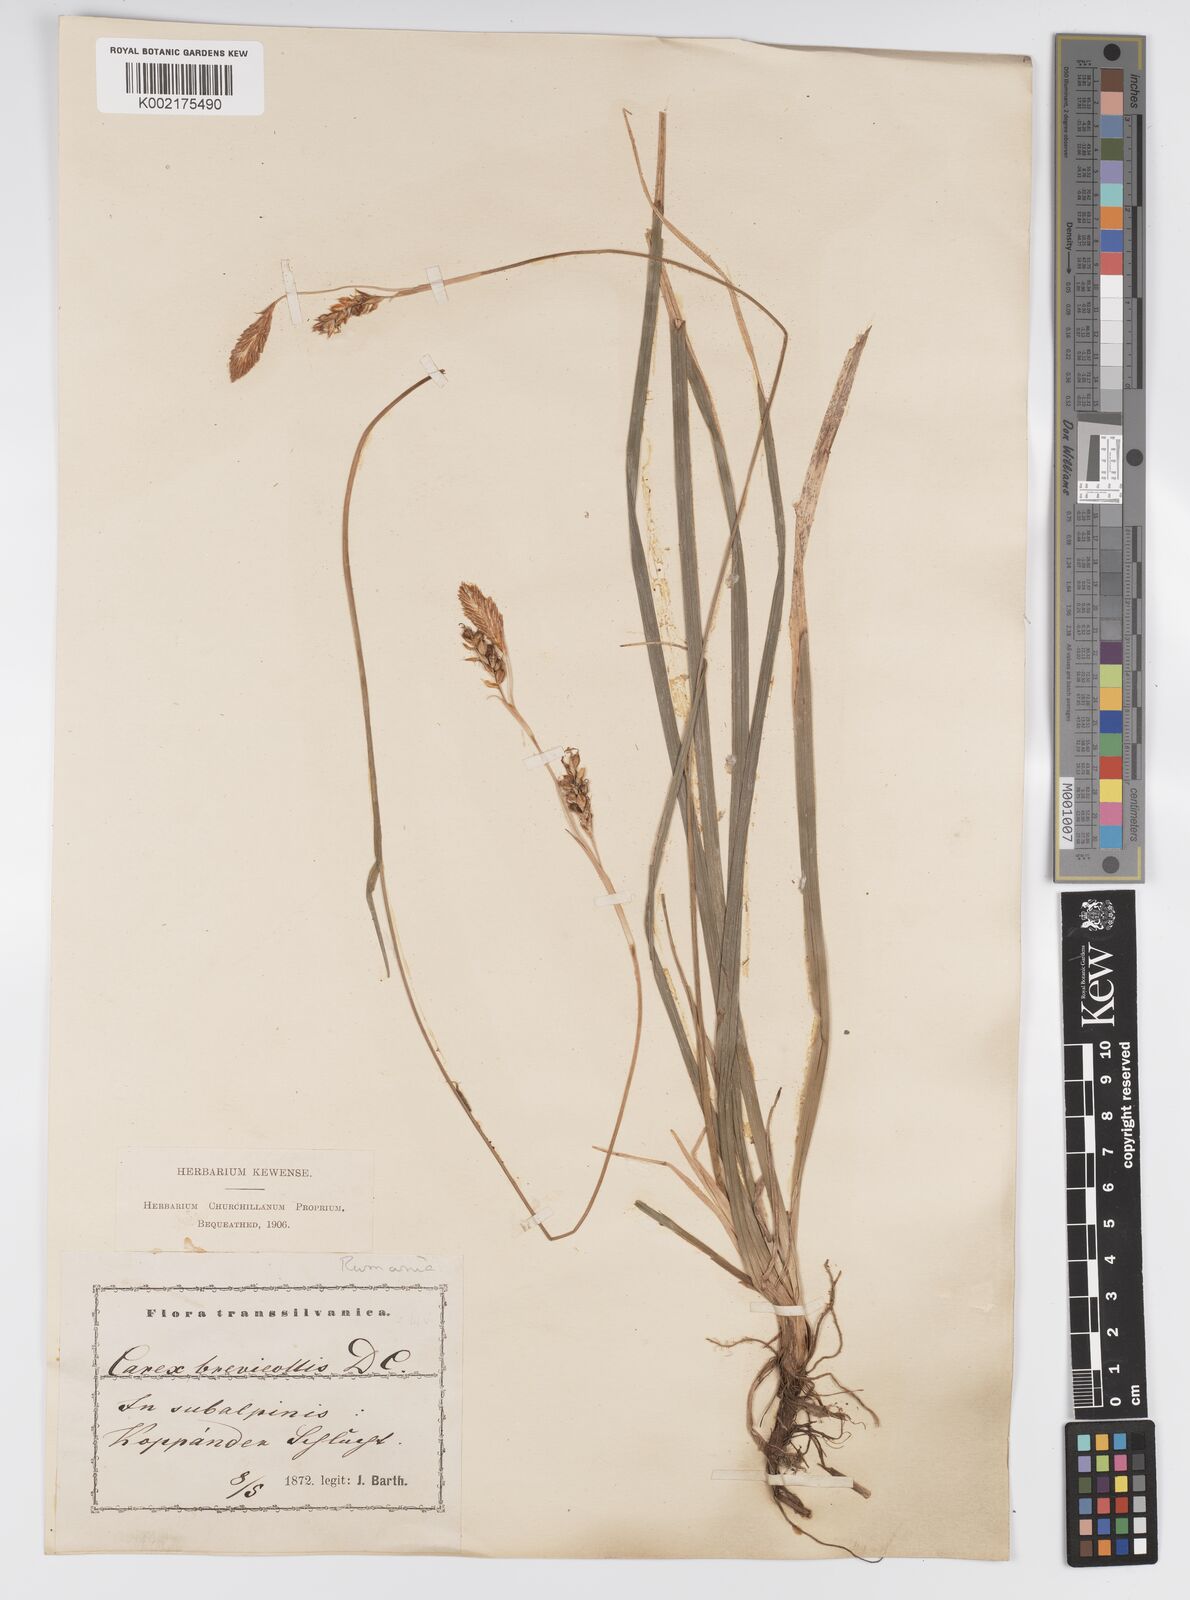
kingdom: Plantae
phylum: Tracheophyta
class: Liliopsida
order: Poales
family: Cyperaceae
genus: Carex
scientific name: Carex brevicollis
